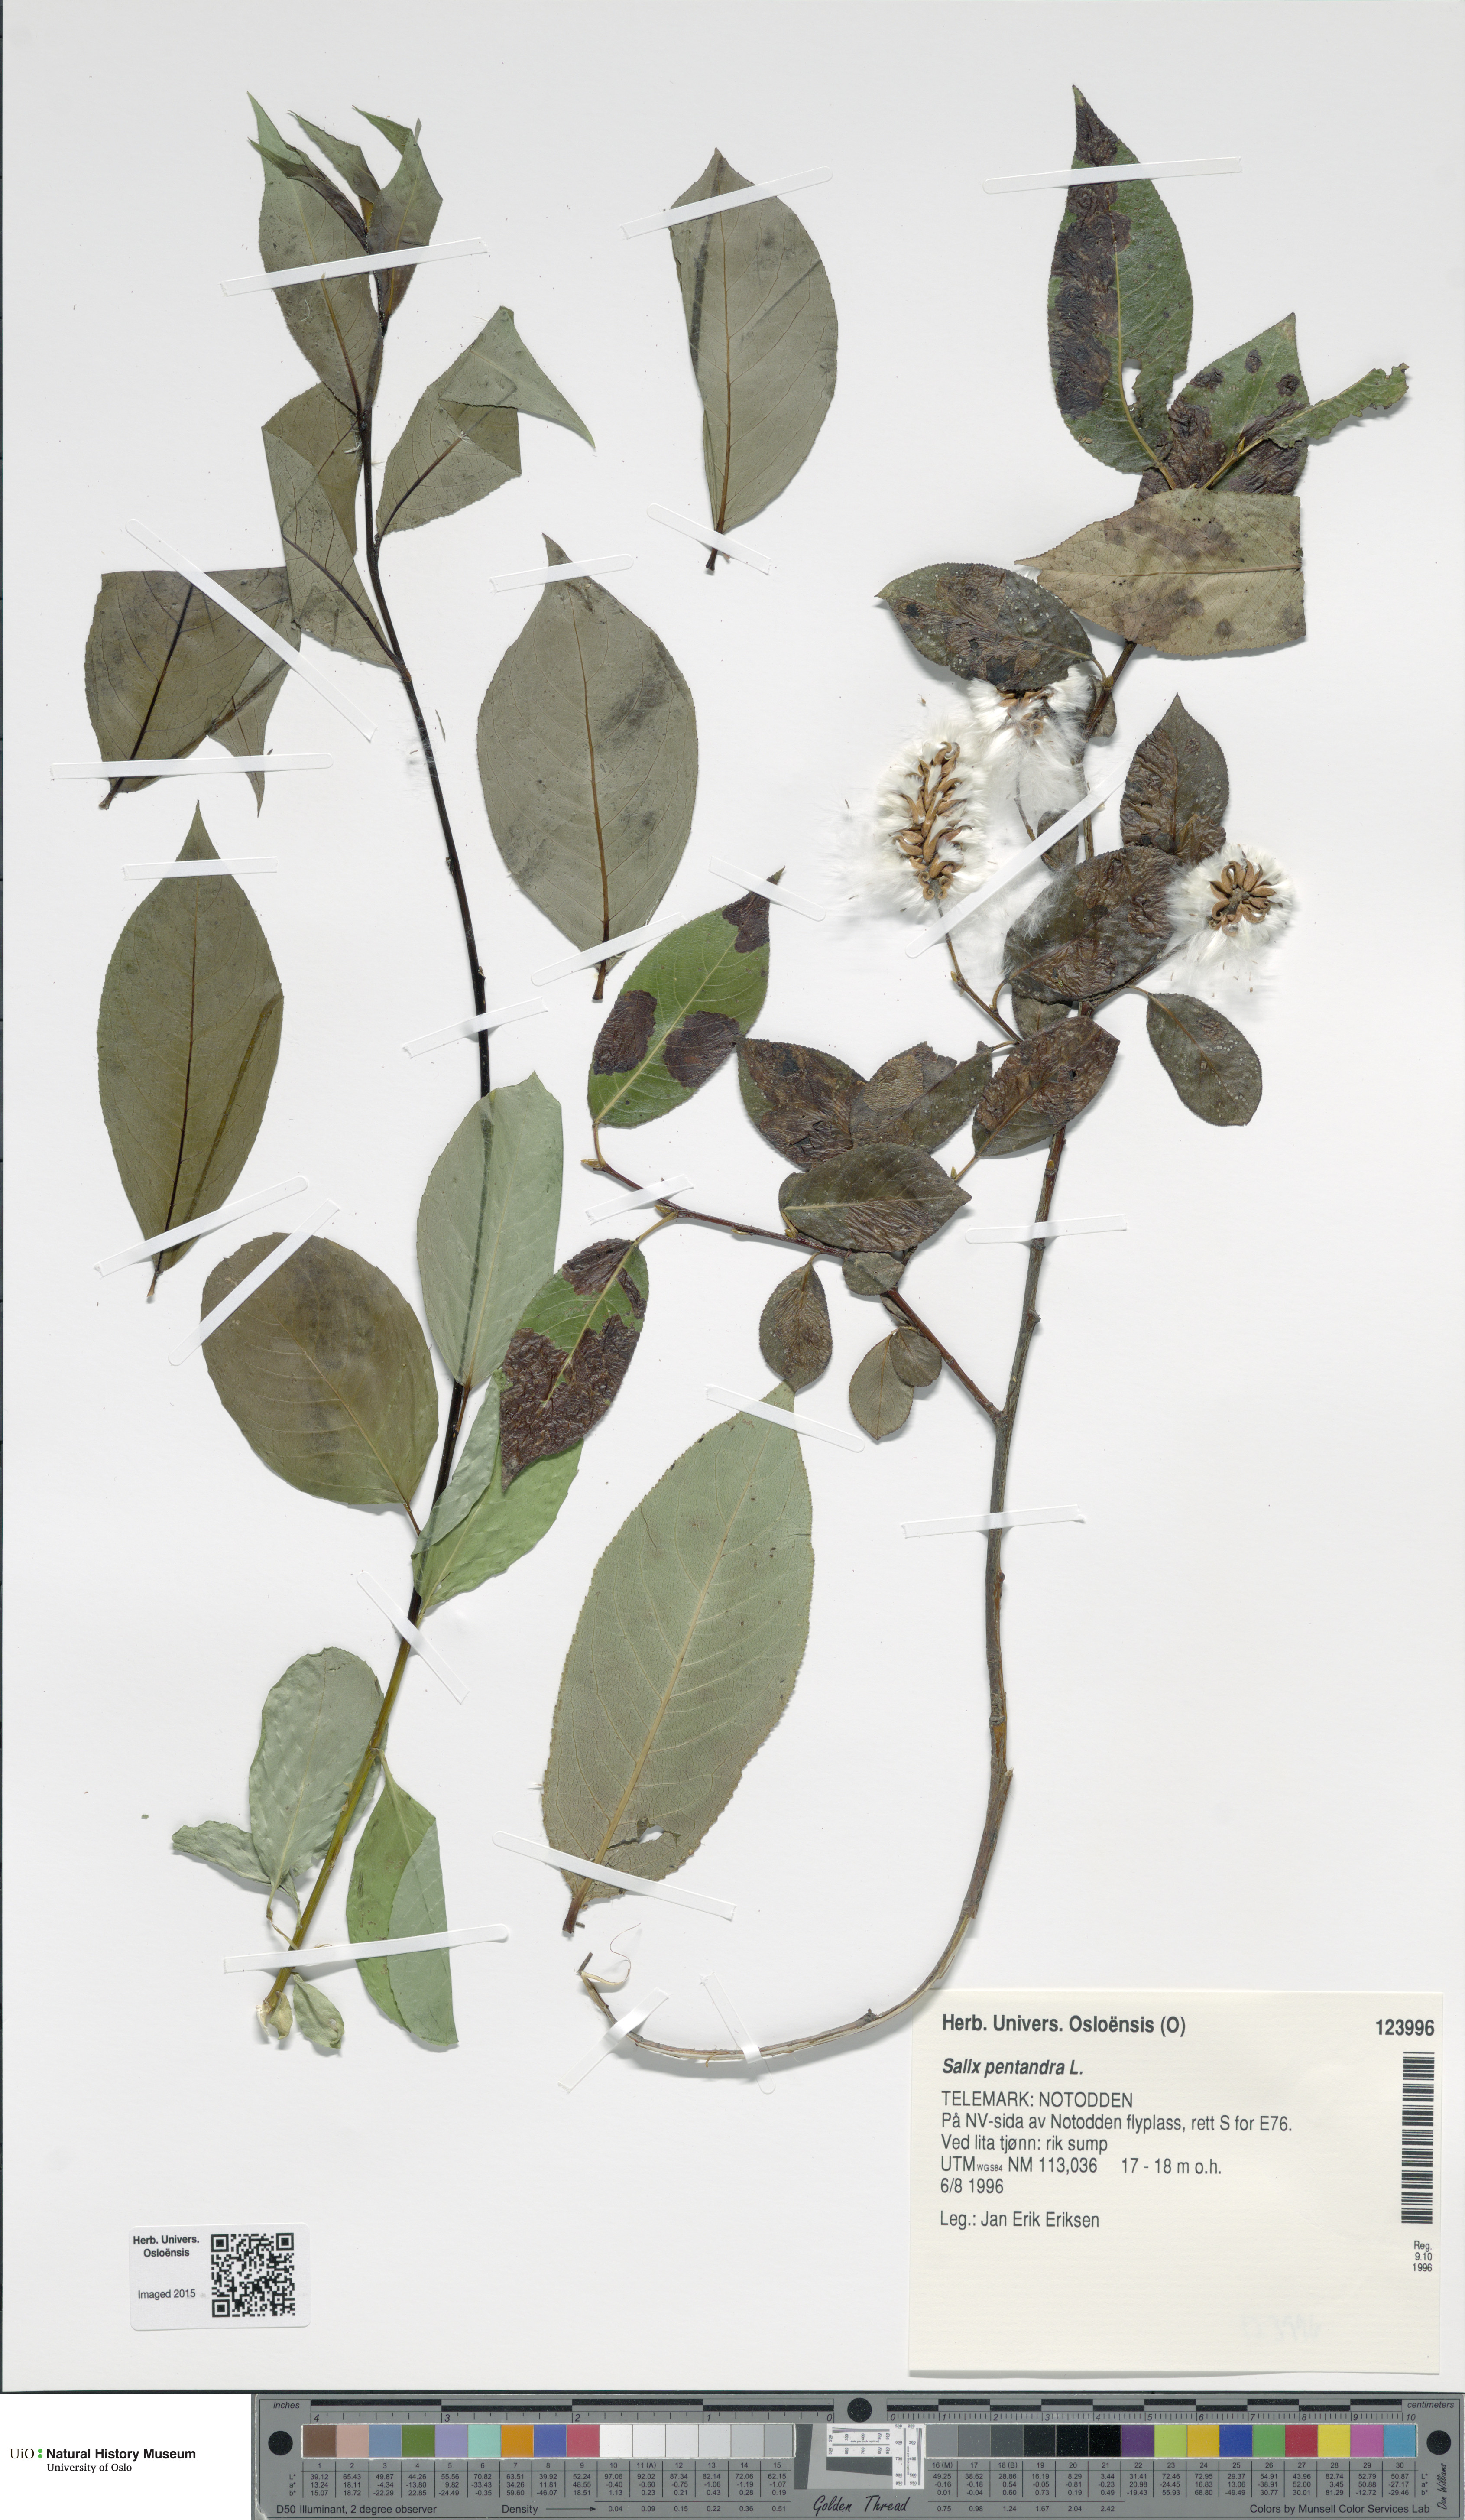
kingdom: Plantae
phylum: Tracheophyta
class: Magnoliopsida
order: Malpighiales
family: Salicaceae
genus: Salix
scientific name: Salix pentandra
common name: Bay willow
